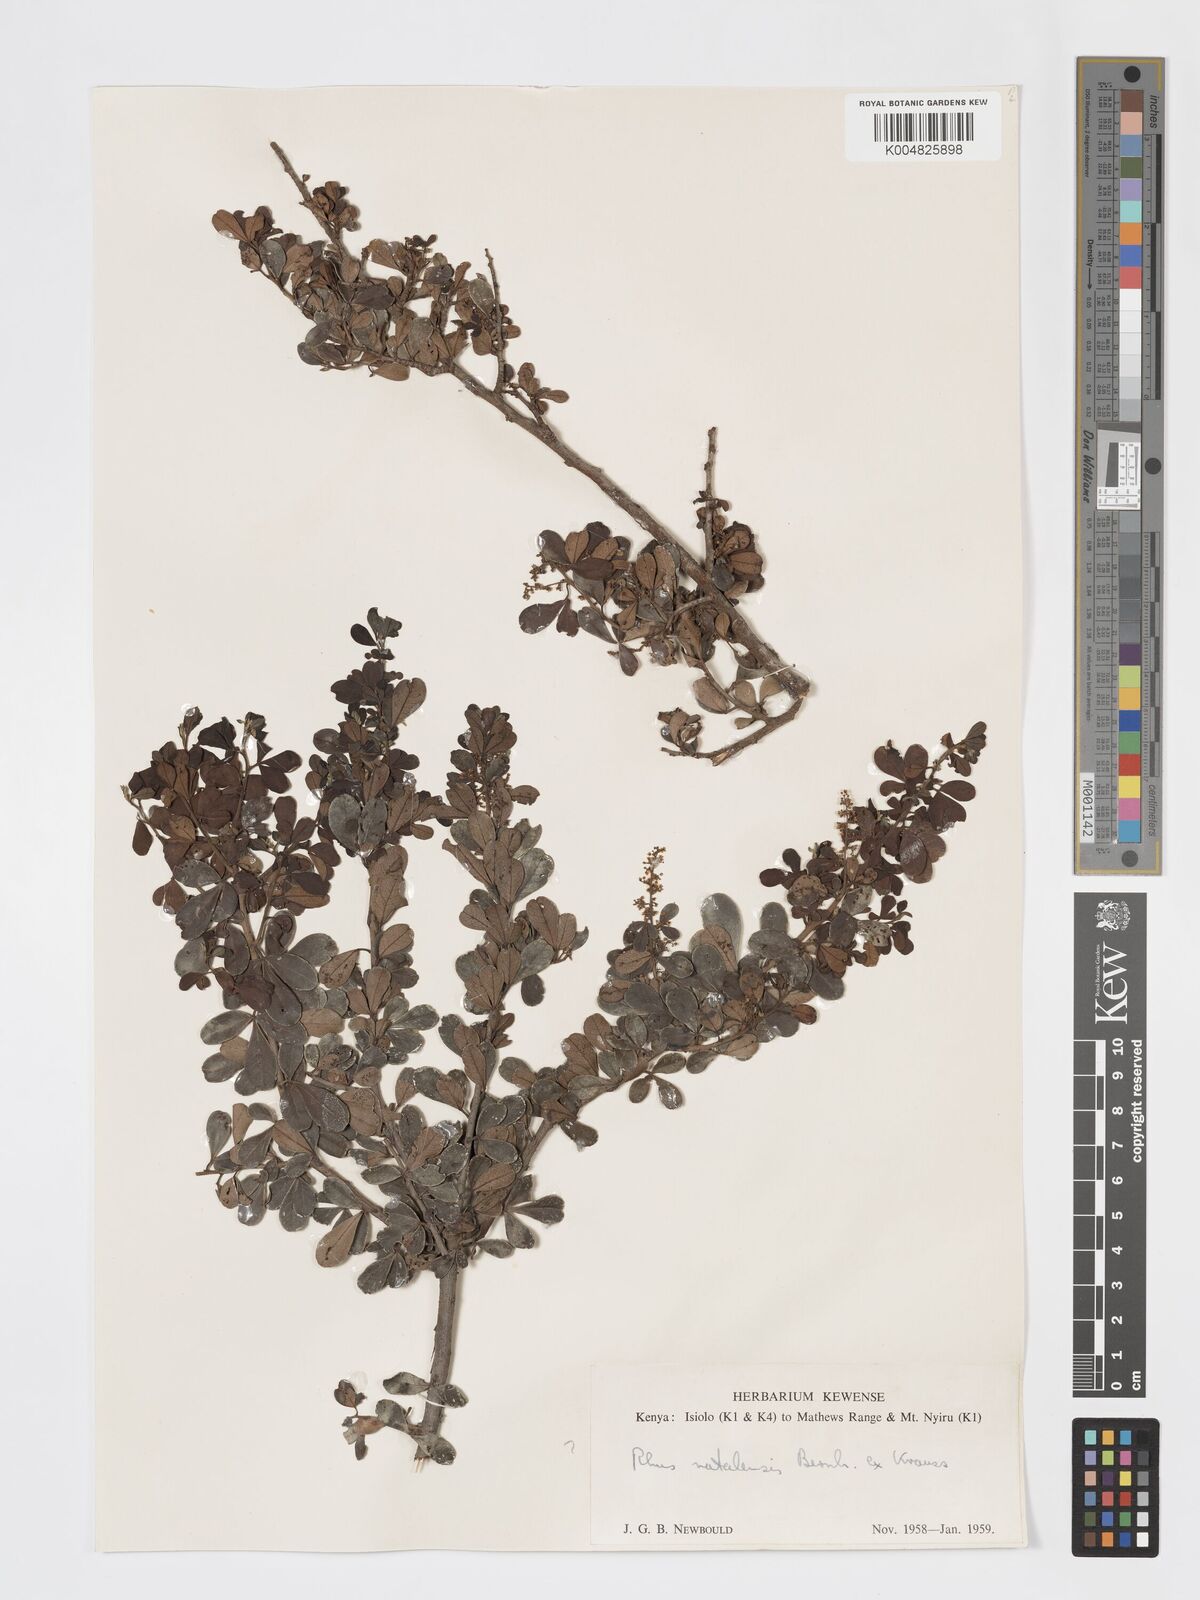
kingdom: Plantae
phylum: Tracheophyta
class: Magnoliopsida
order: Sapindales
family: Anacardiaceae
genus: Searsia
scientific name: Searsia natalensis
